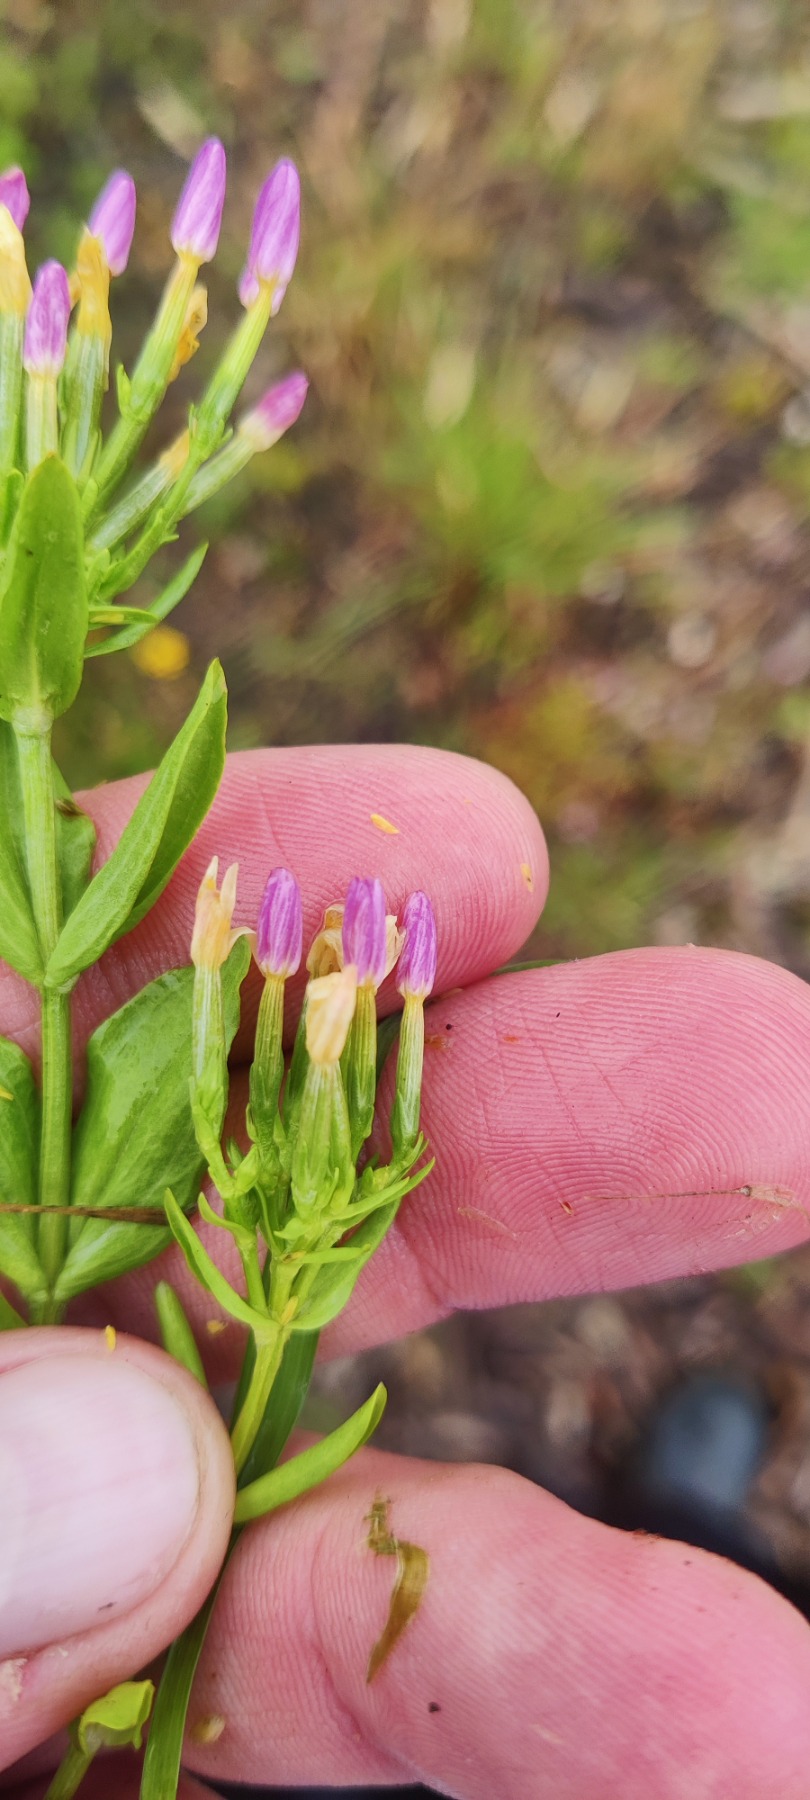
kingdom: Plantae
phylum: Tracheophyta
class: Magnoliopsida
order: Gentianales
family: Gentianaceae
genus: Centaurium
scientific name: Centaurium erythraea
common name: Mark-tusindgylden
